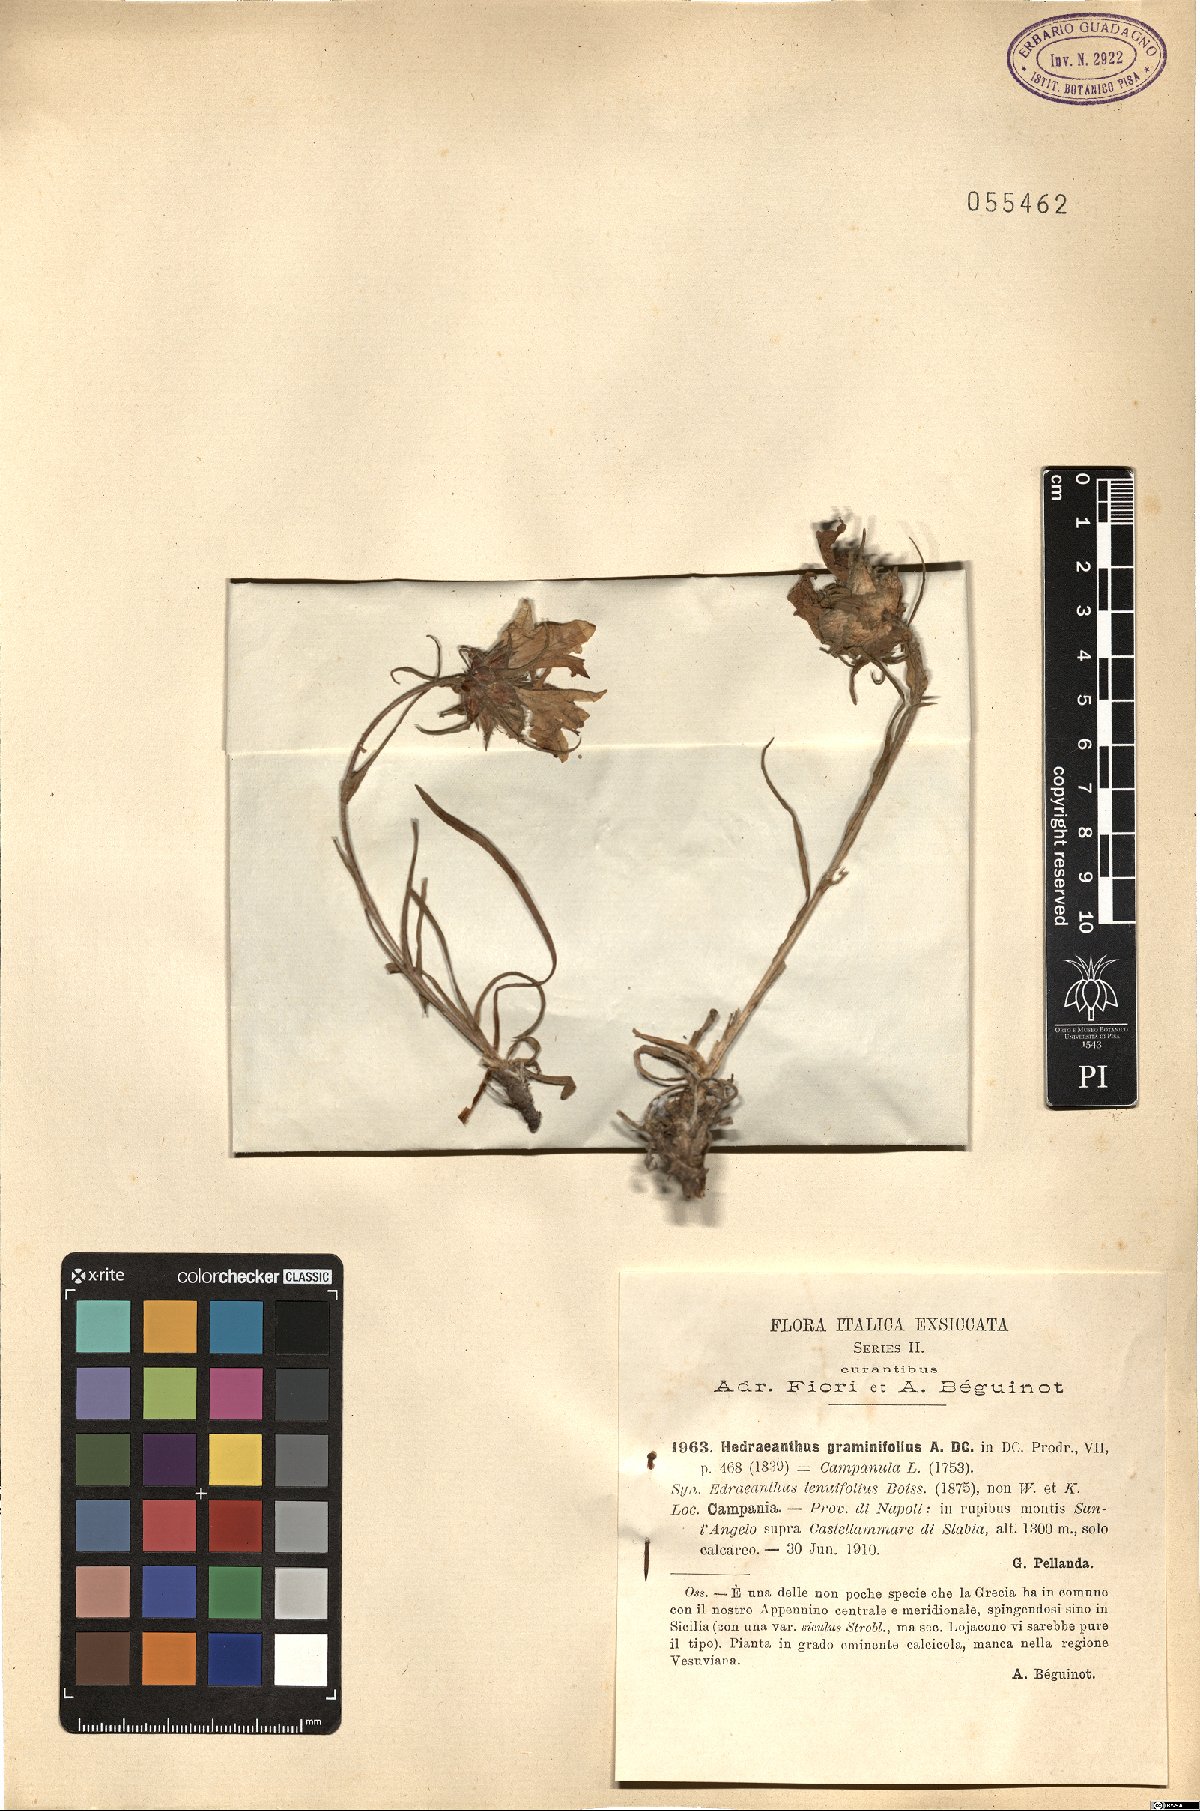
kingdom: Plantae
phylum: Tracheophyta
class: Magnoliopsida
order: Asterales
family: Campanulaceae
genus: Edraianthus
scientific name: Edraianthus graminifolius
